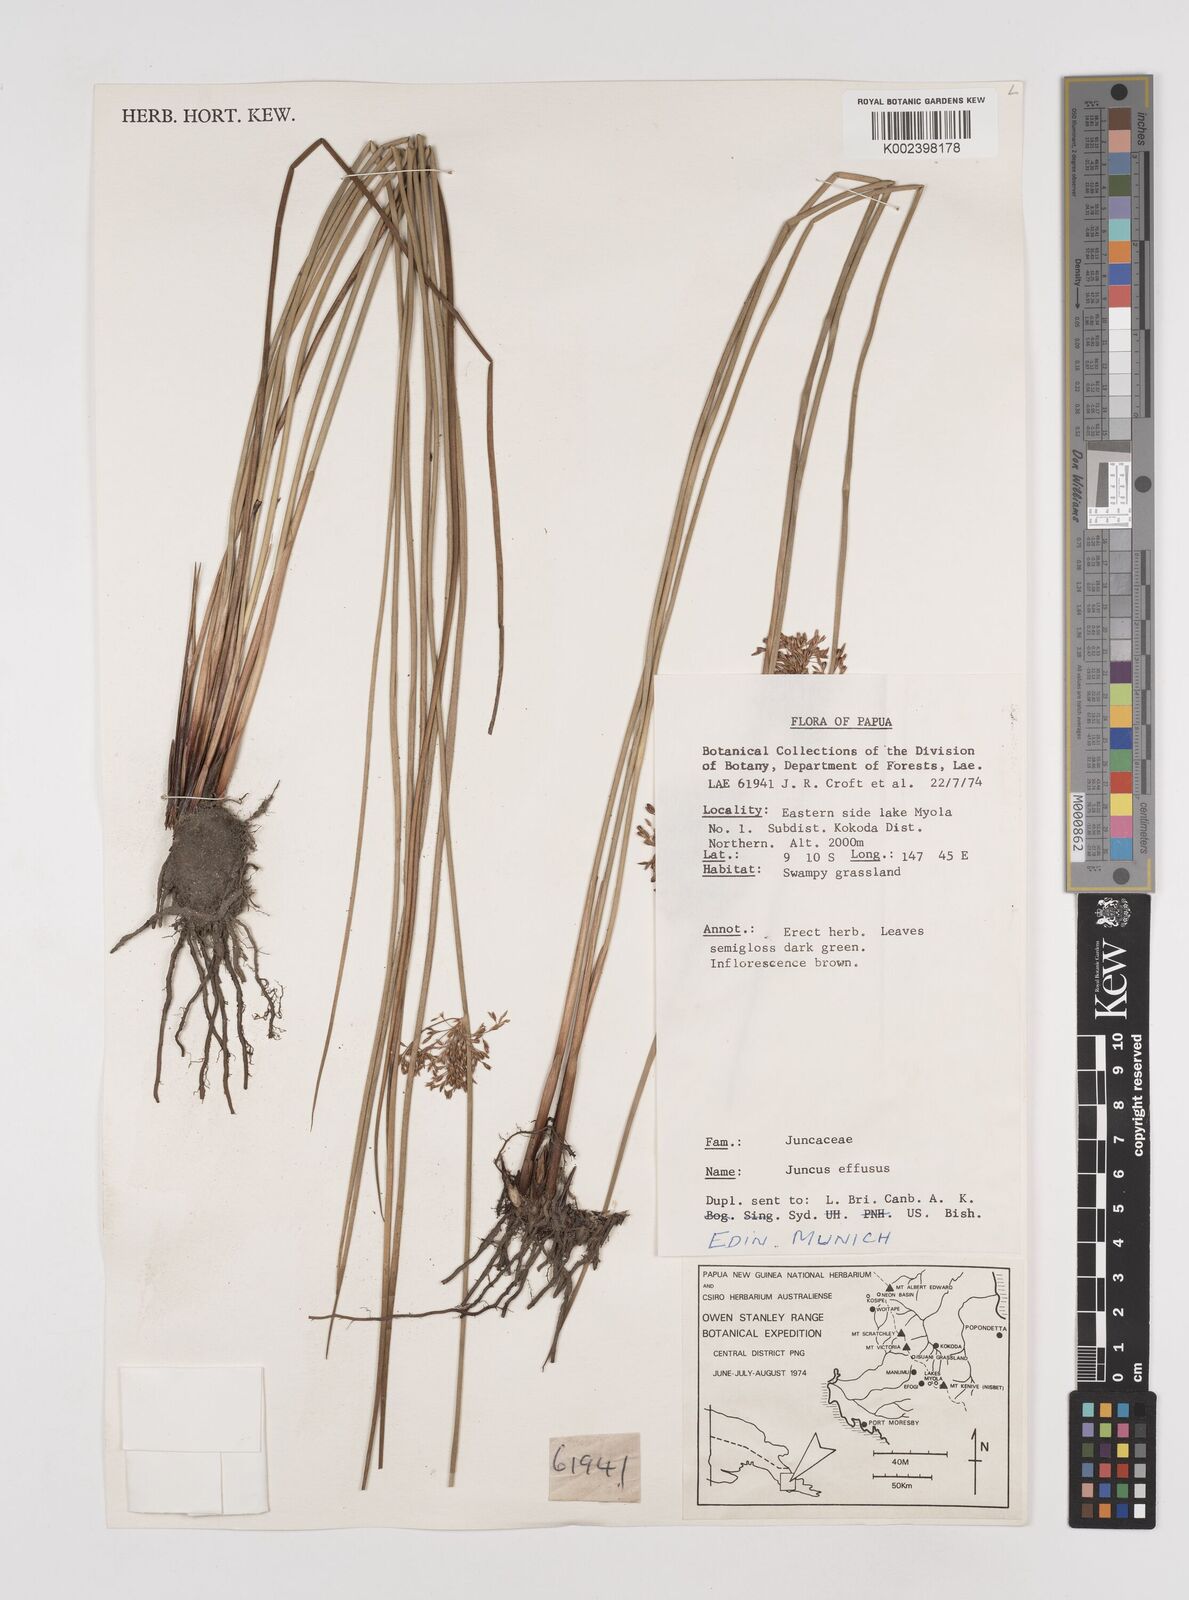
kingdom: Plantae
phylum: Tracheophyta
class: Liliopsida
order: Poales
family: Juncaceae
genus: Juncus
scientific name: Juncus decipiens
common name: Lamp rush
